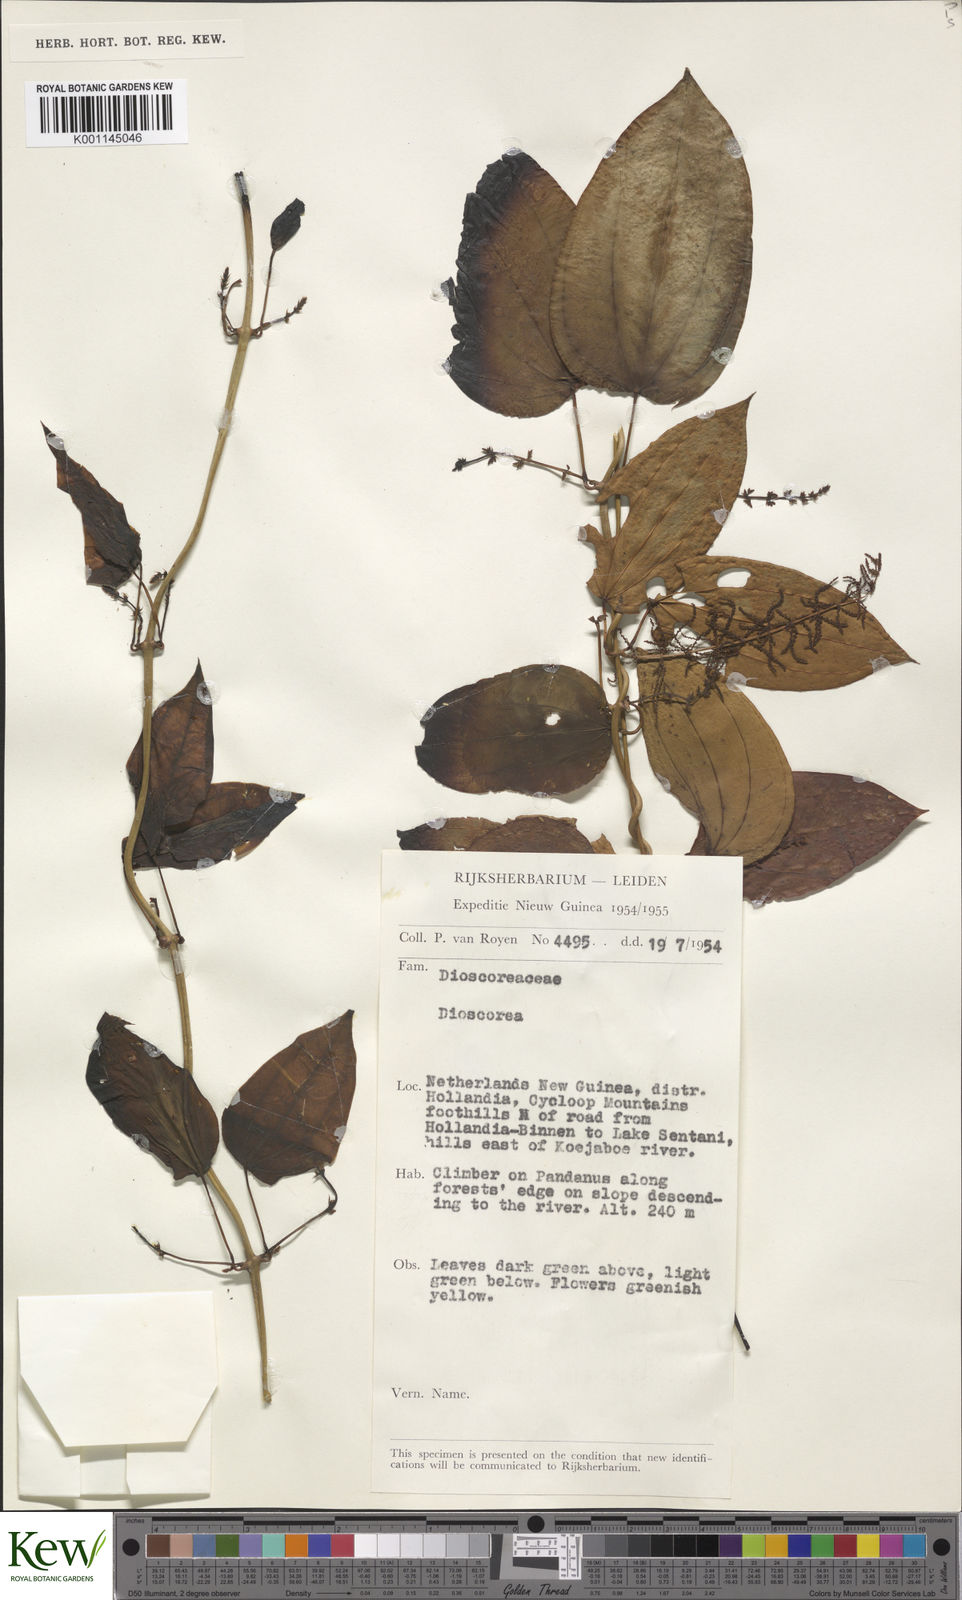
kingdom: Plantae
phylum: Tracheophyta
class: Liliopsida
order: Dioscoreales
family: Dioscoreaceae
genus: Dioscorea
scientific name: Dioscorea
